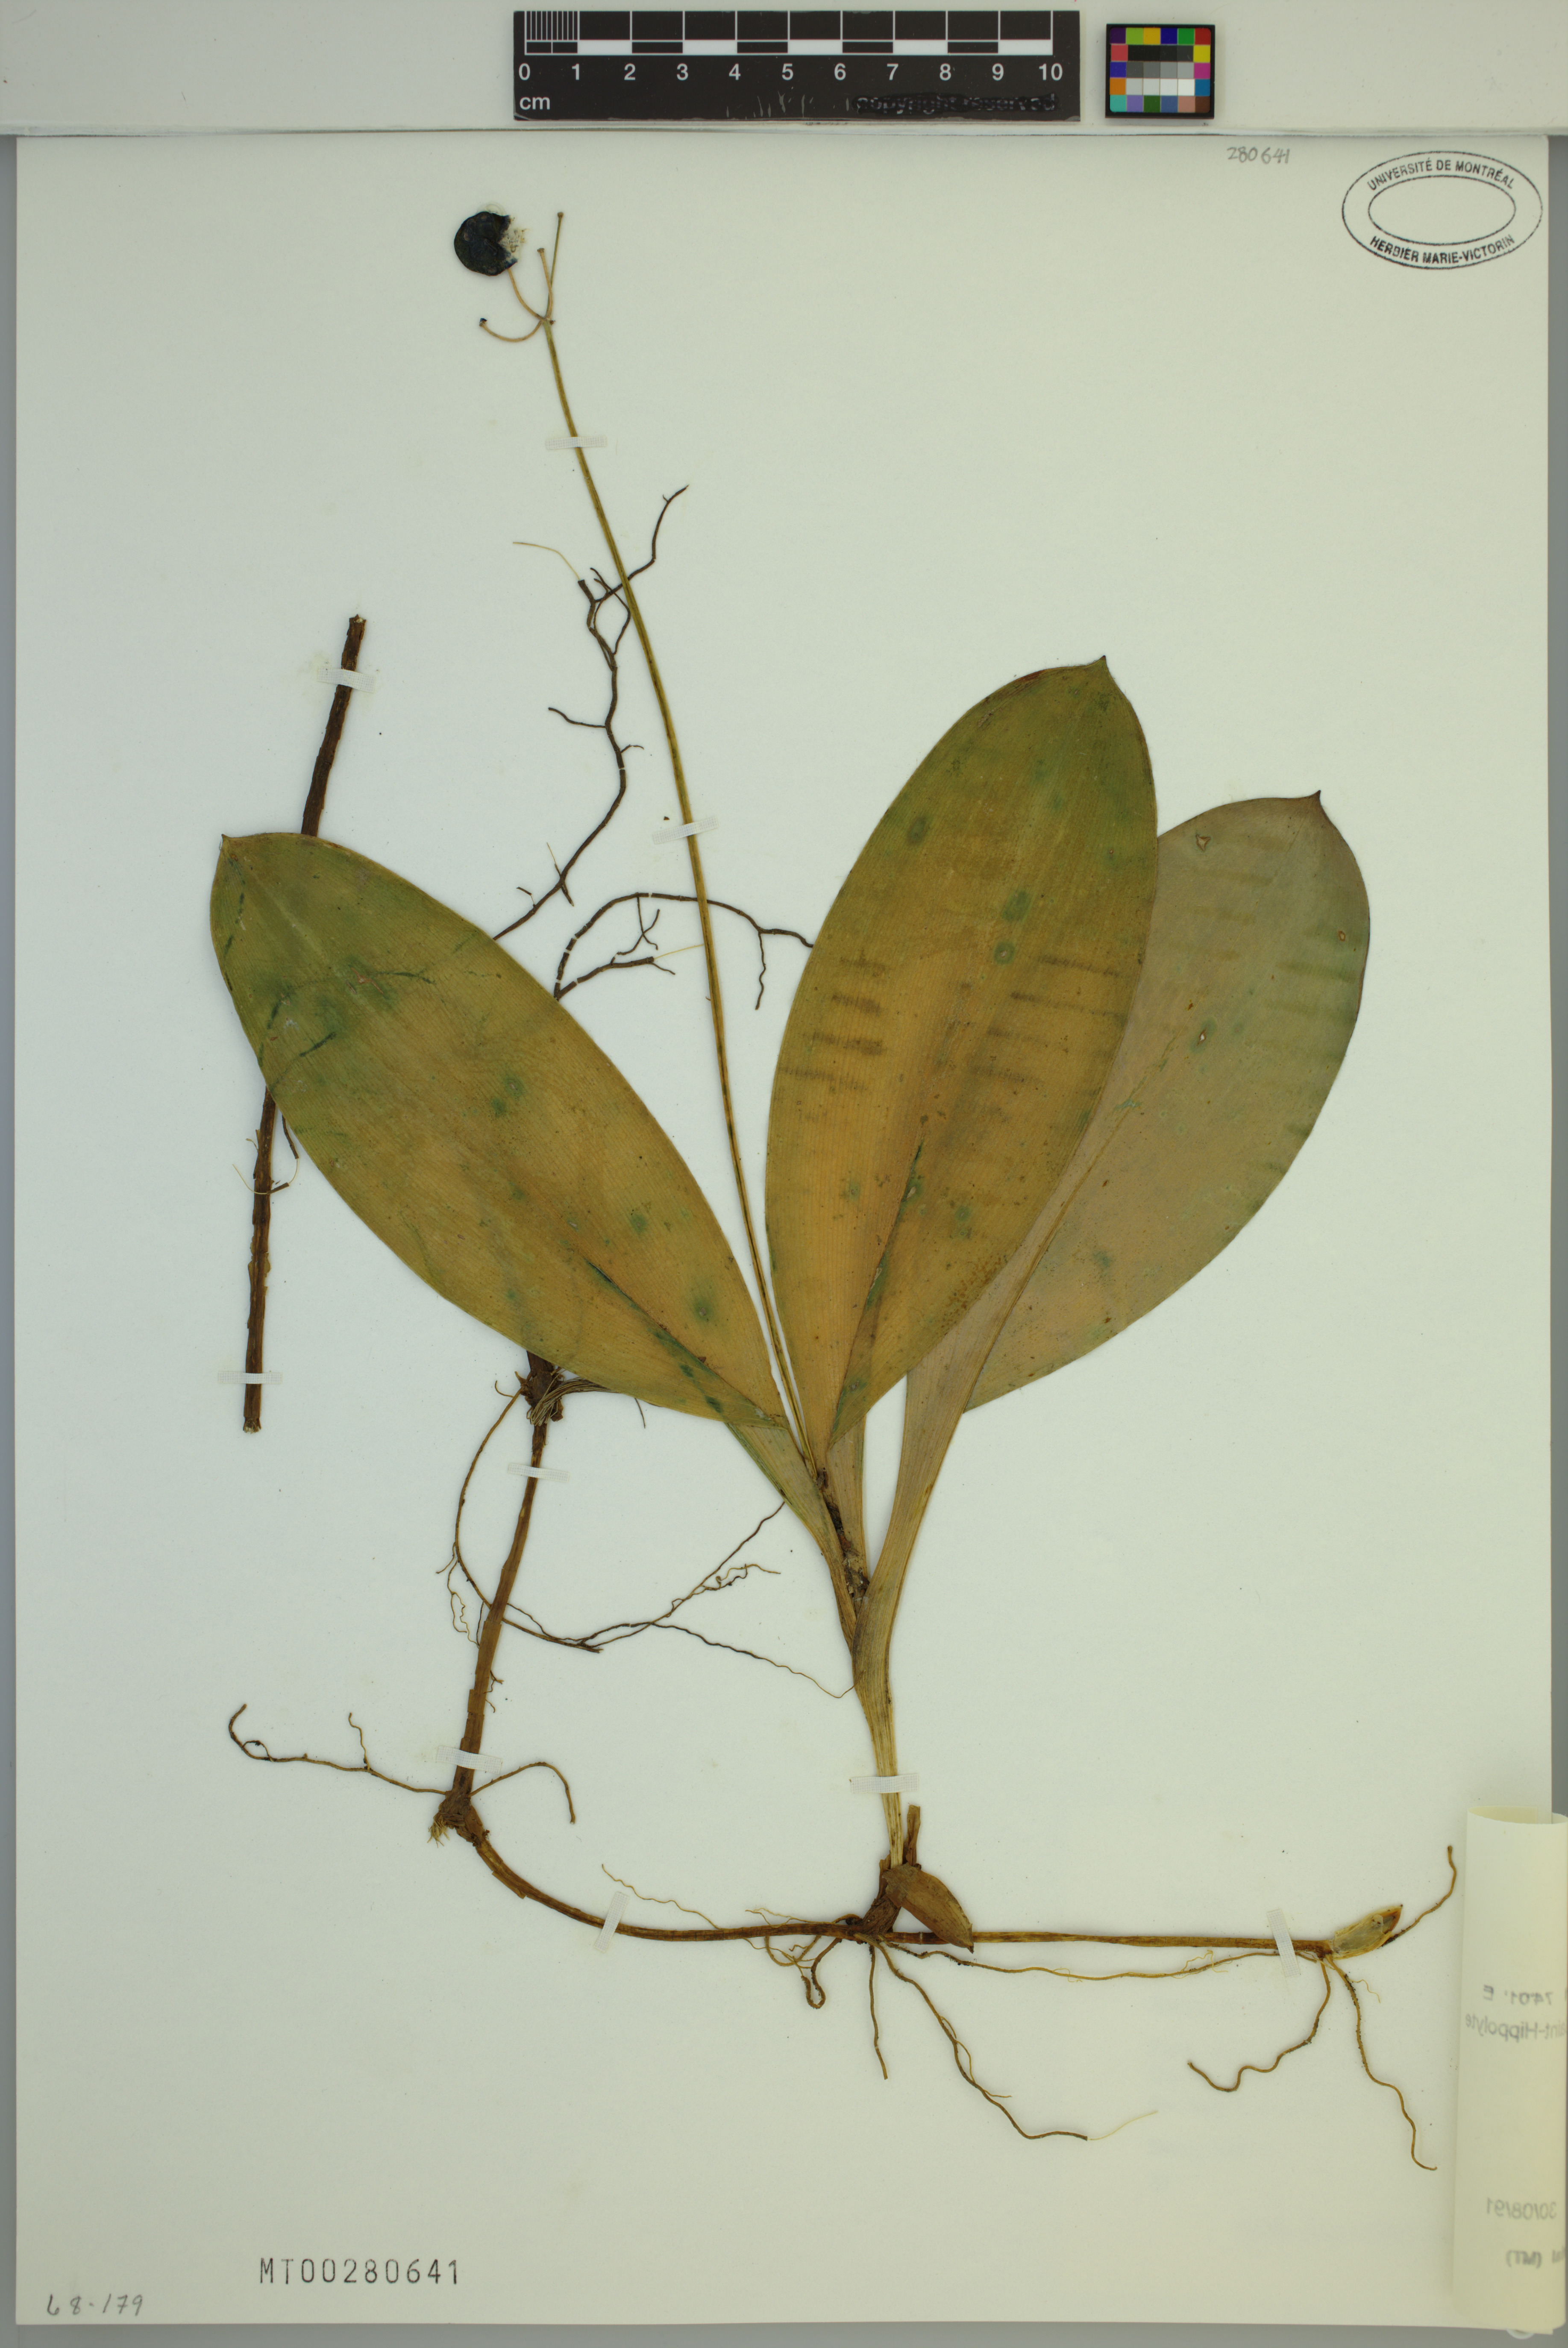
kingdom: Plantae
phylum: Tracheophyta
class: Liliopsida
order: Liliales
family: Liliaceae
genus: Clintonia
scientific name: Clintonia borealis
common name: Yellow clintonia
